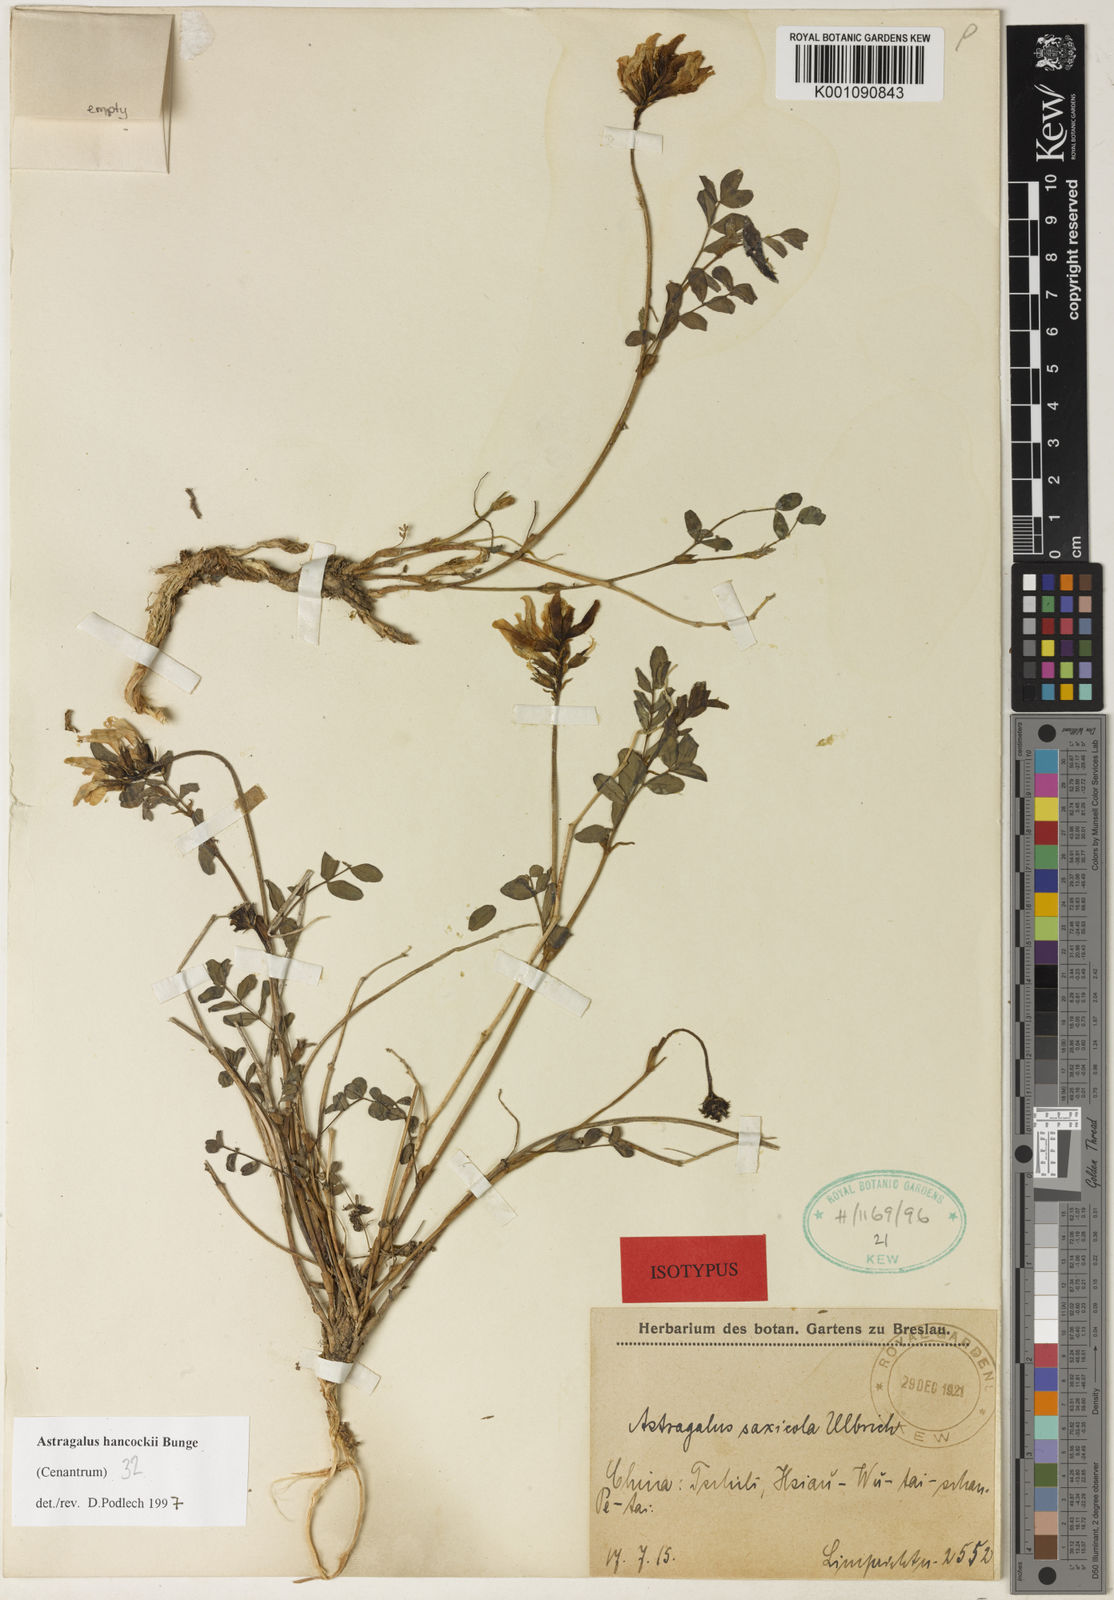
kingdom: Plantae
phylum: Tracheophyta
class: Magnoliopsida
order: Fabales
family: Fabaceae
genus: Astragalus
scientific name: Astragalus
